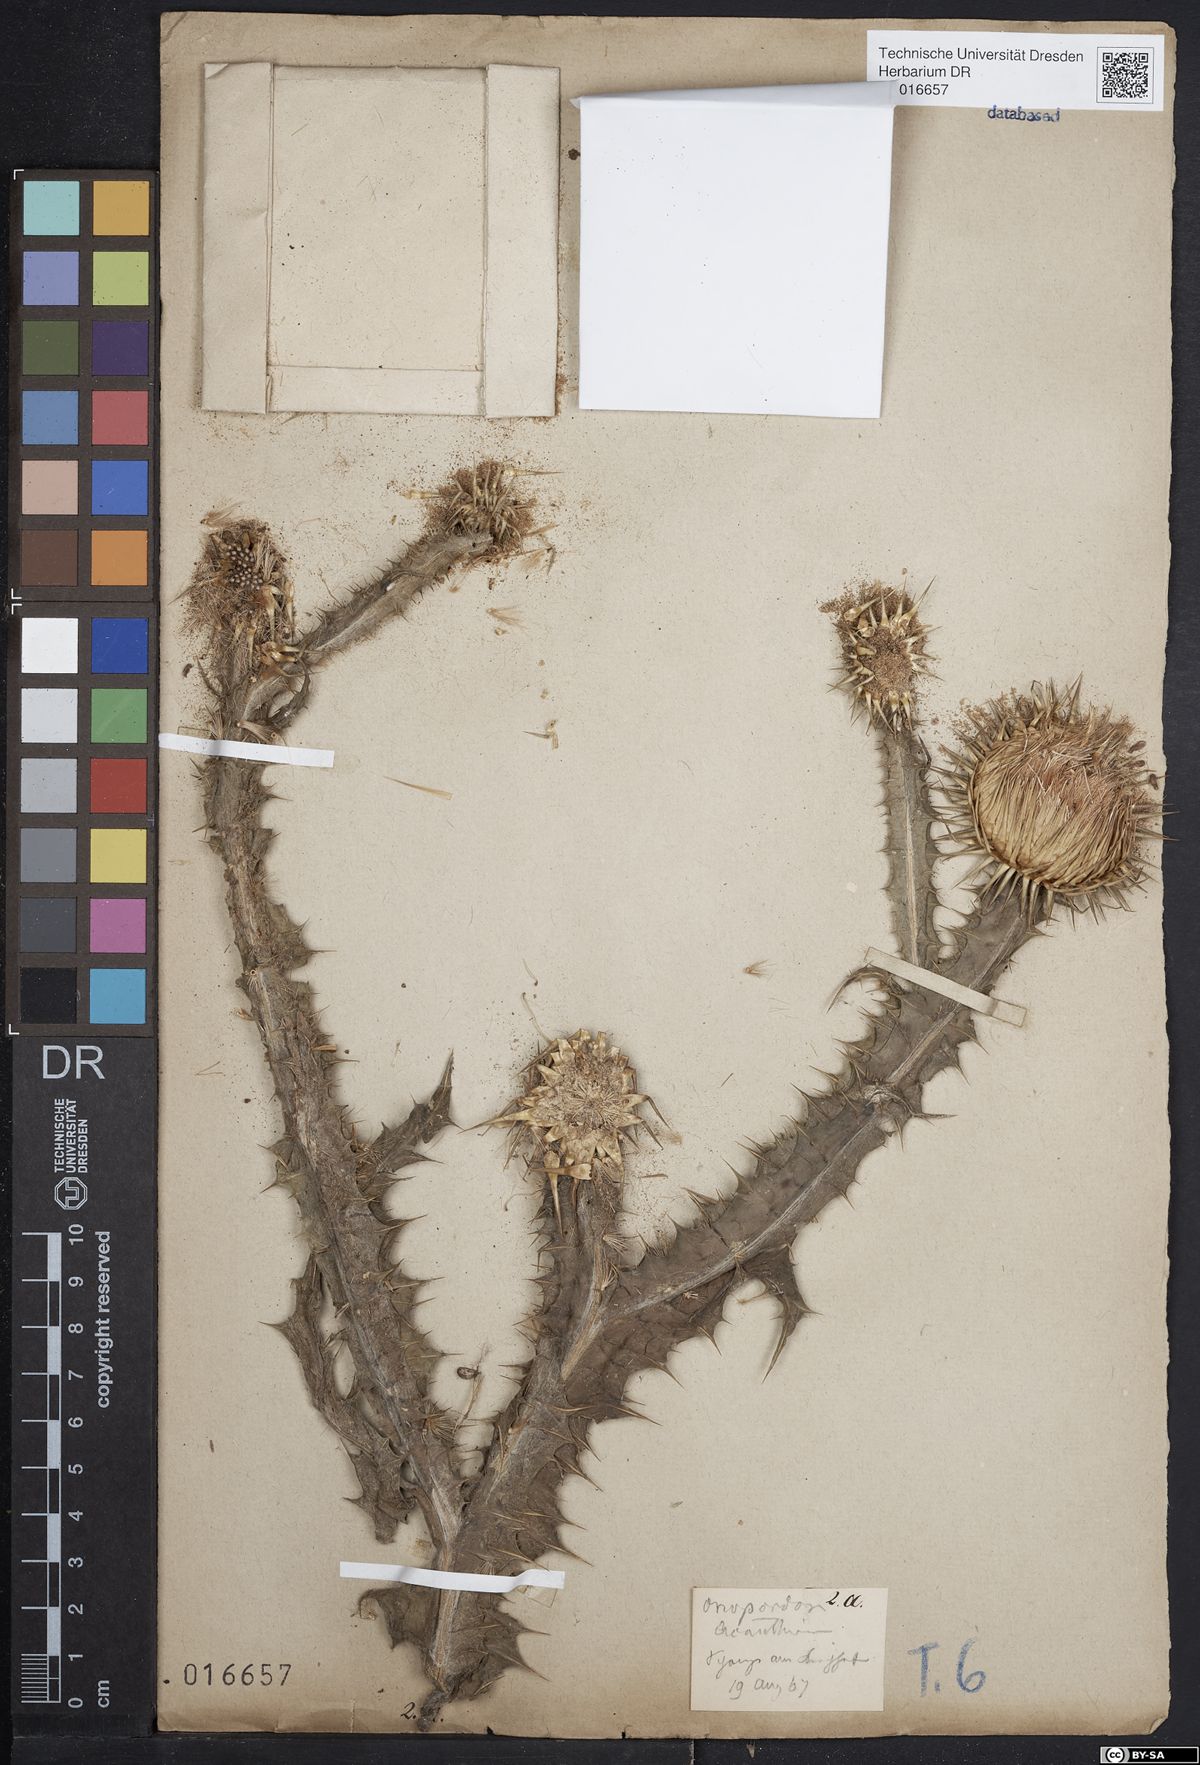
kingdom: Plantae
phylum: Tracheophyta
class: Magnoliopsida
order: Asterales
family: Asteraceae
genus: Onopordum
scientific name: Onopordum acanthium
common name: Scotch thistle
